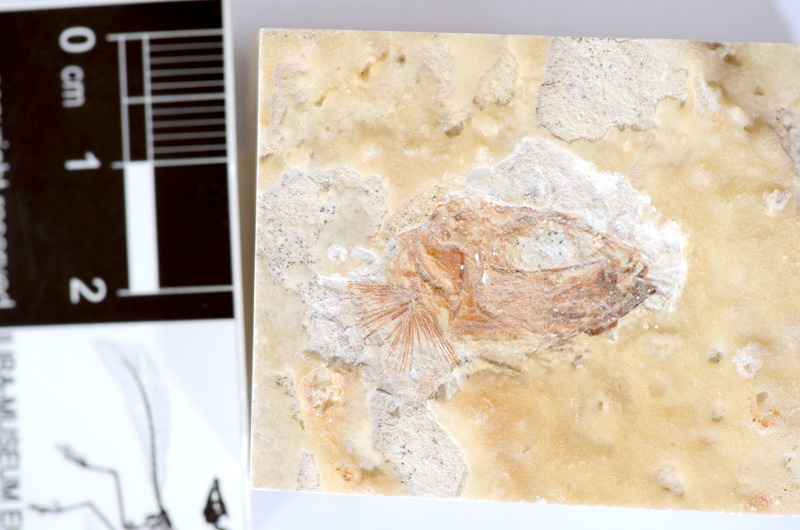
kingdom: Animalia
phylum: Chordata
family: Ascalaboidae
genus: Tharsis
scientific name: Tharsis dubius
